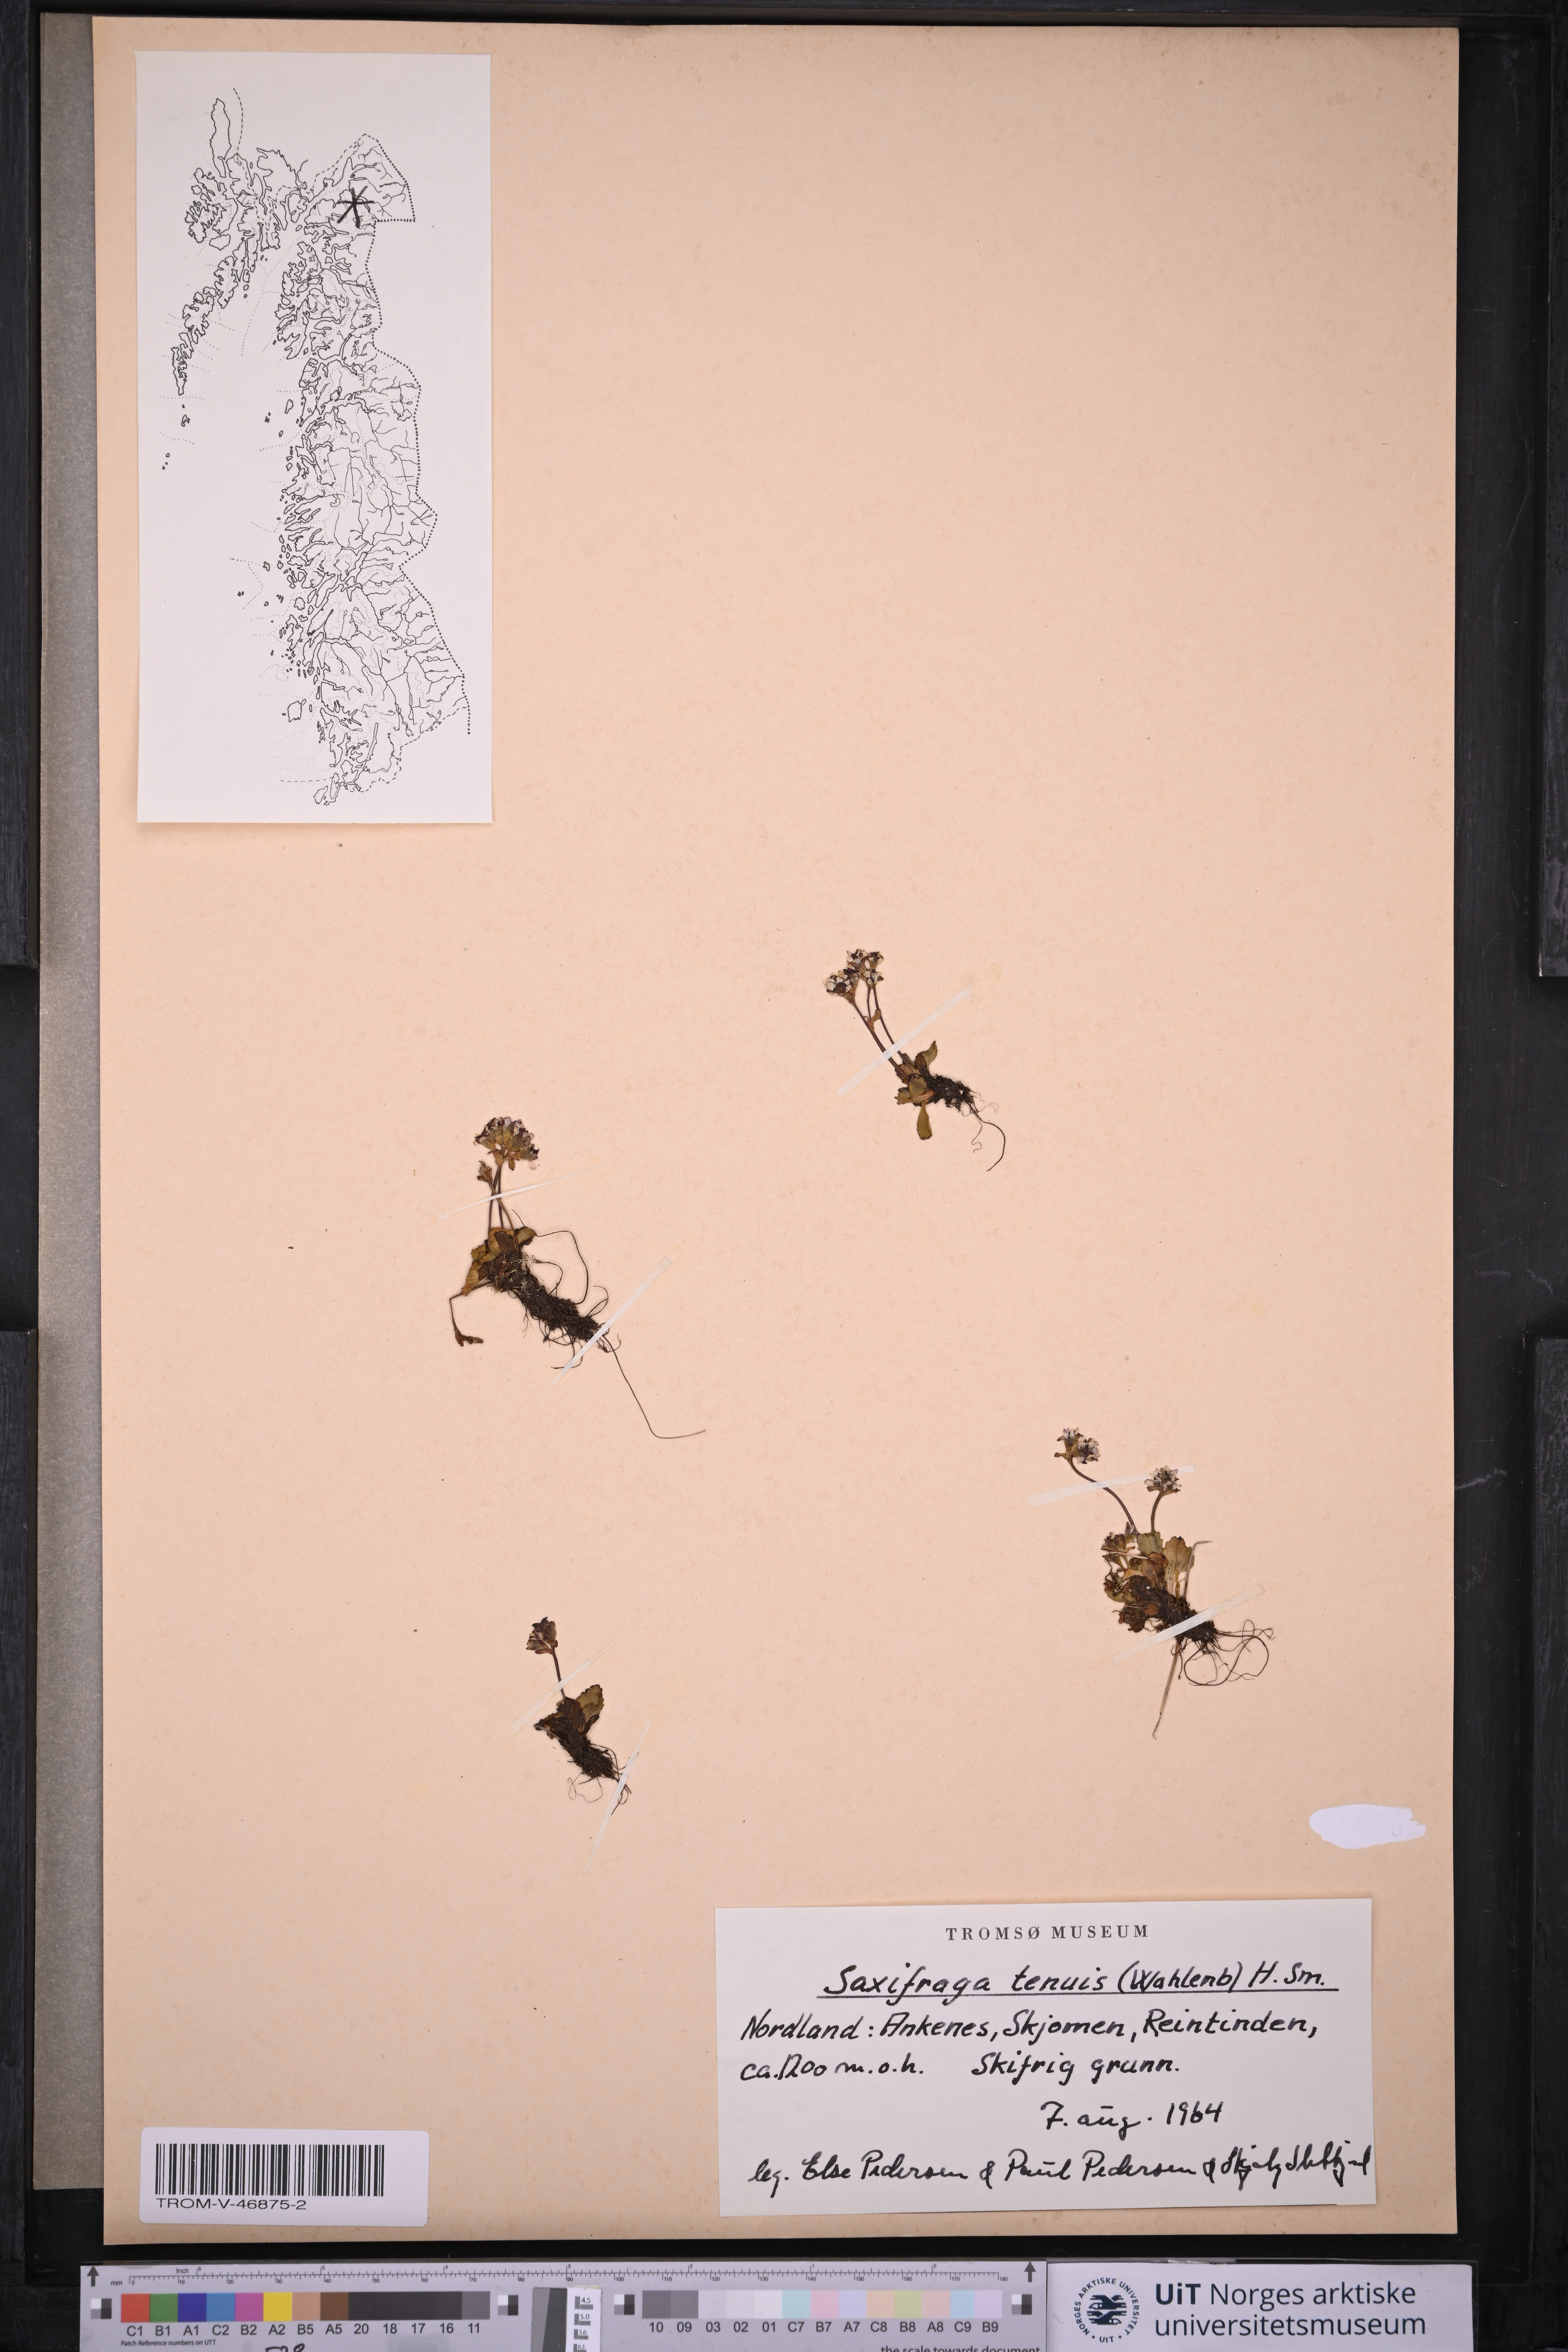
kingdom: Plantae
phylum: Tracheophyta
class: Magnoliopsida
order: Saxifragales
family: Saxifragaceae
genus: Micranthes
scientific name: Micranthes tenuis
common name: Ottertail pass saxifrage
